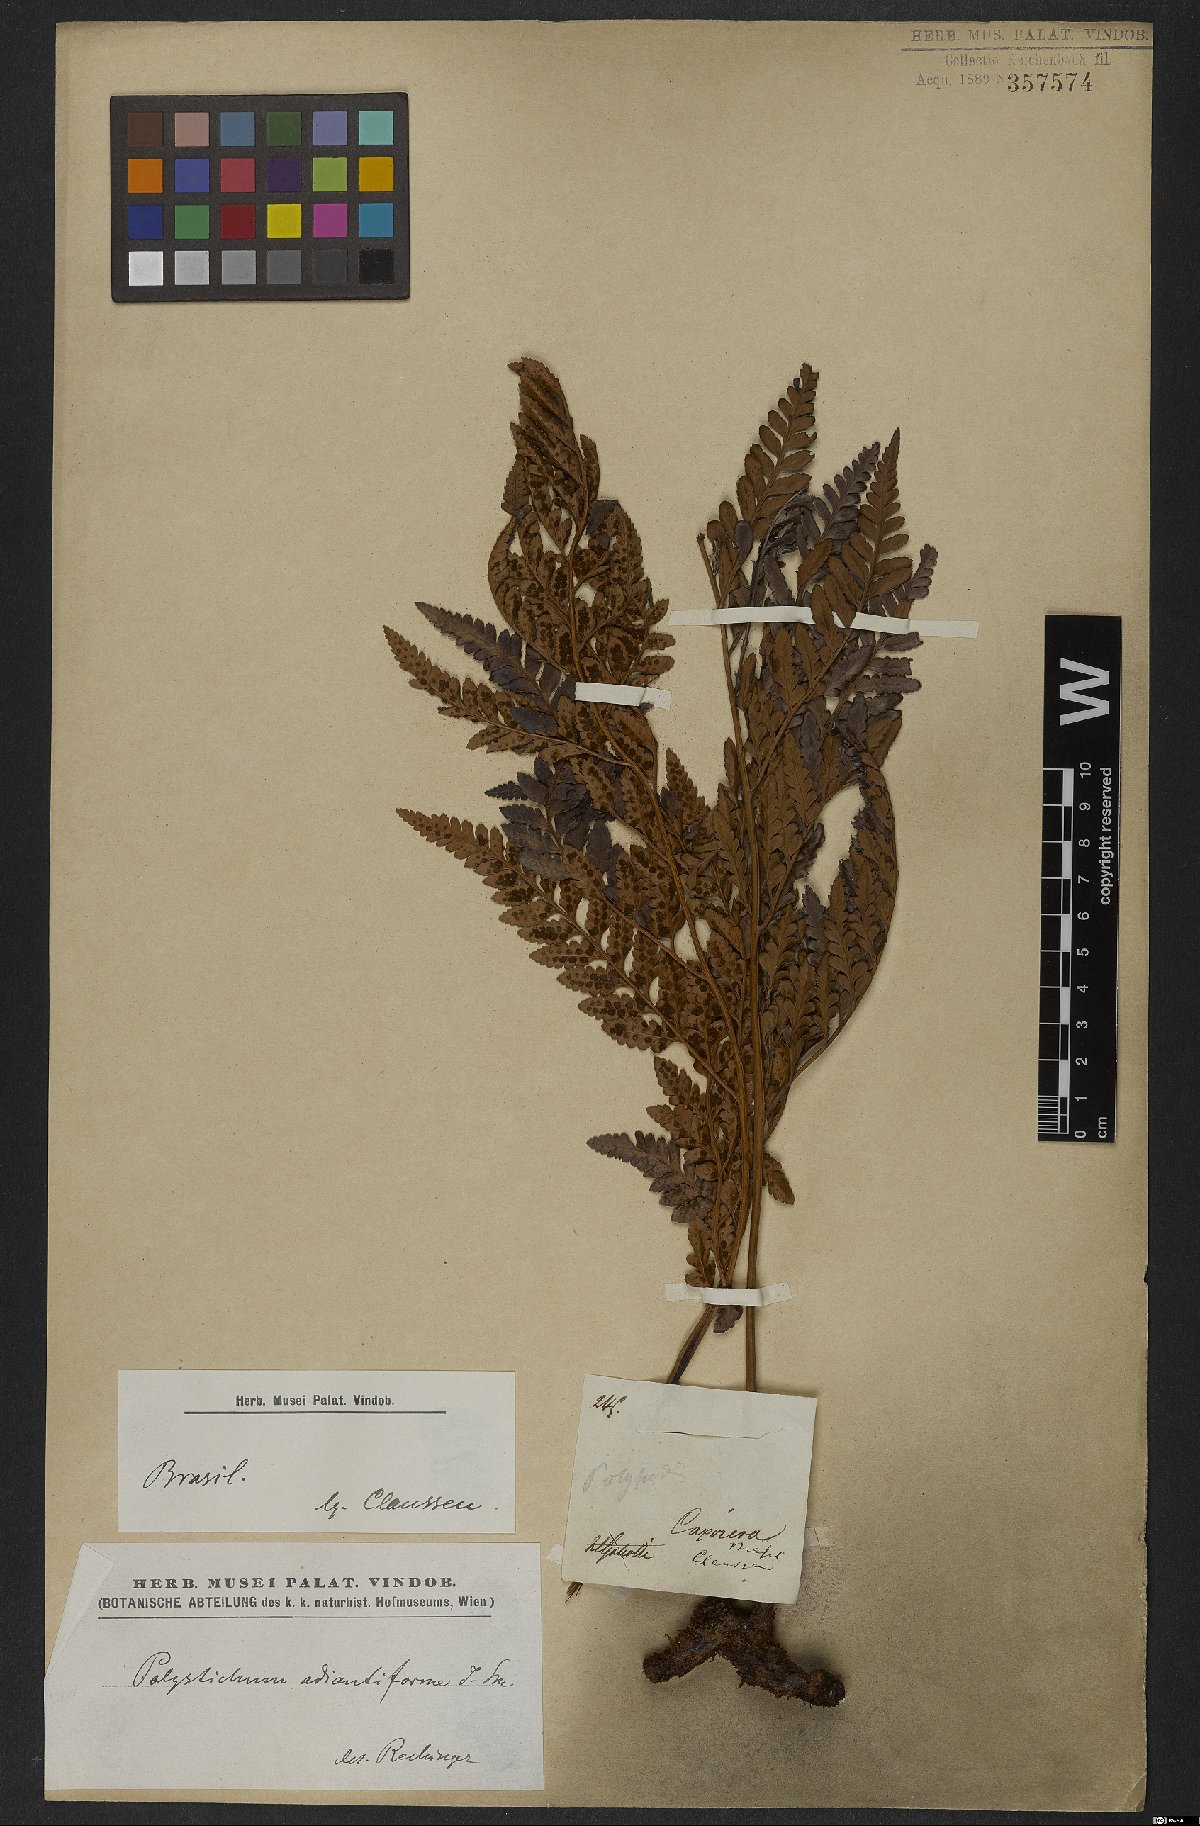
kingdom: Plantae
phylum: Tracheophyta
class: Polypodiopsida
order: Polypodiales
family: Dryopteridaceae
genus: Rumohra
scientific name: Rumohra adiantiformis
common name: Leather fern
